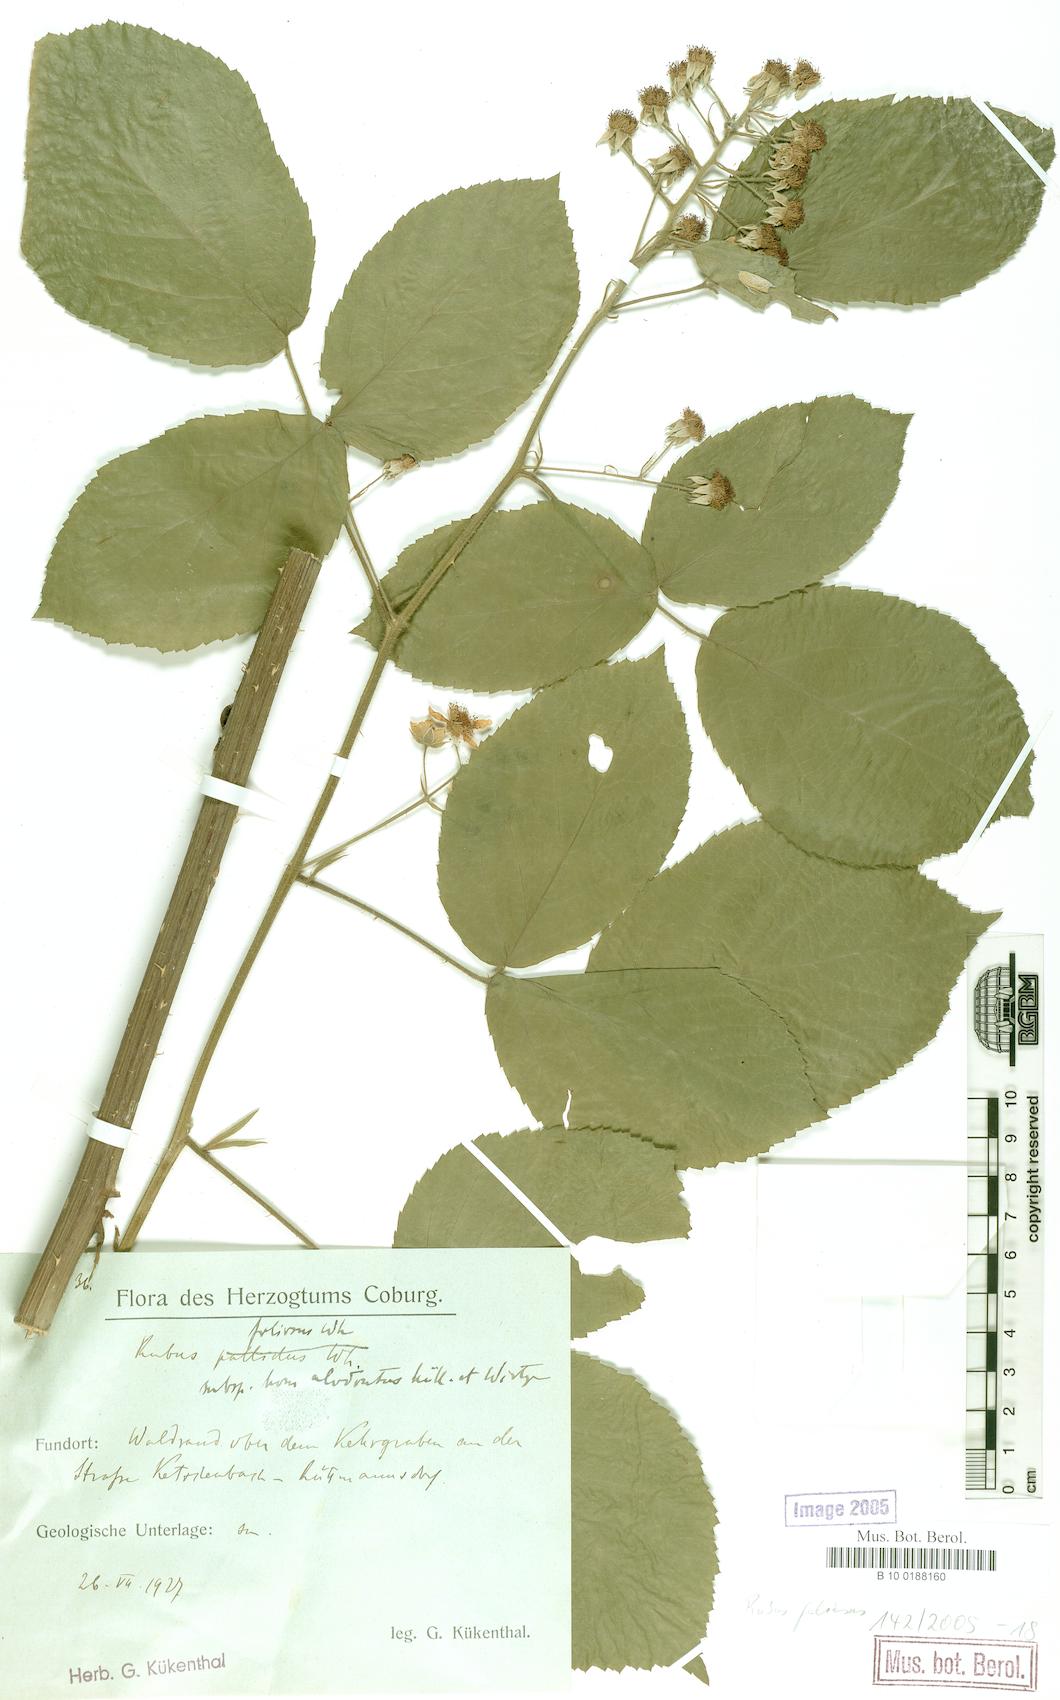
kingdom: Plantae
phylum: Tracheophyta
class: Magnoliopsida
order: Rosales
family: Rosaceae
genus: Rubus
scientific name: Rubus silvae-thuringiae
